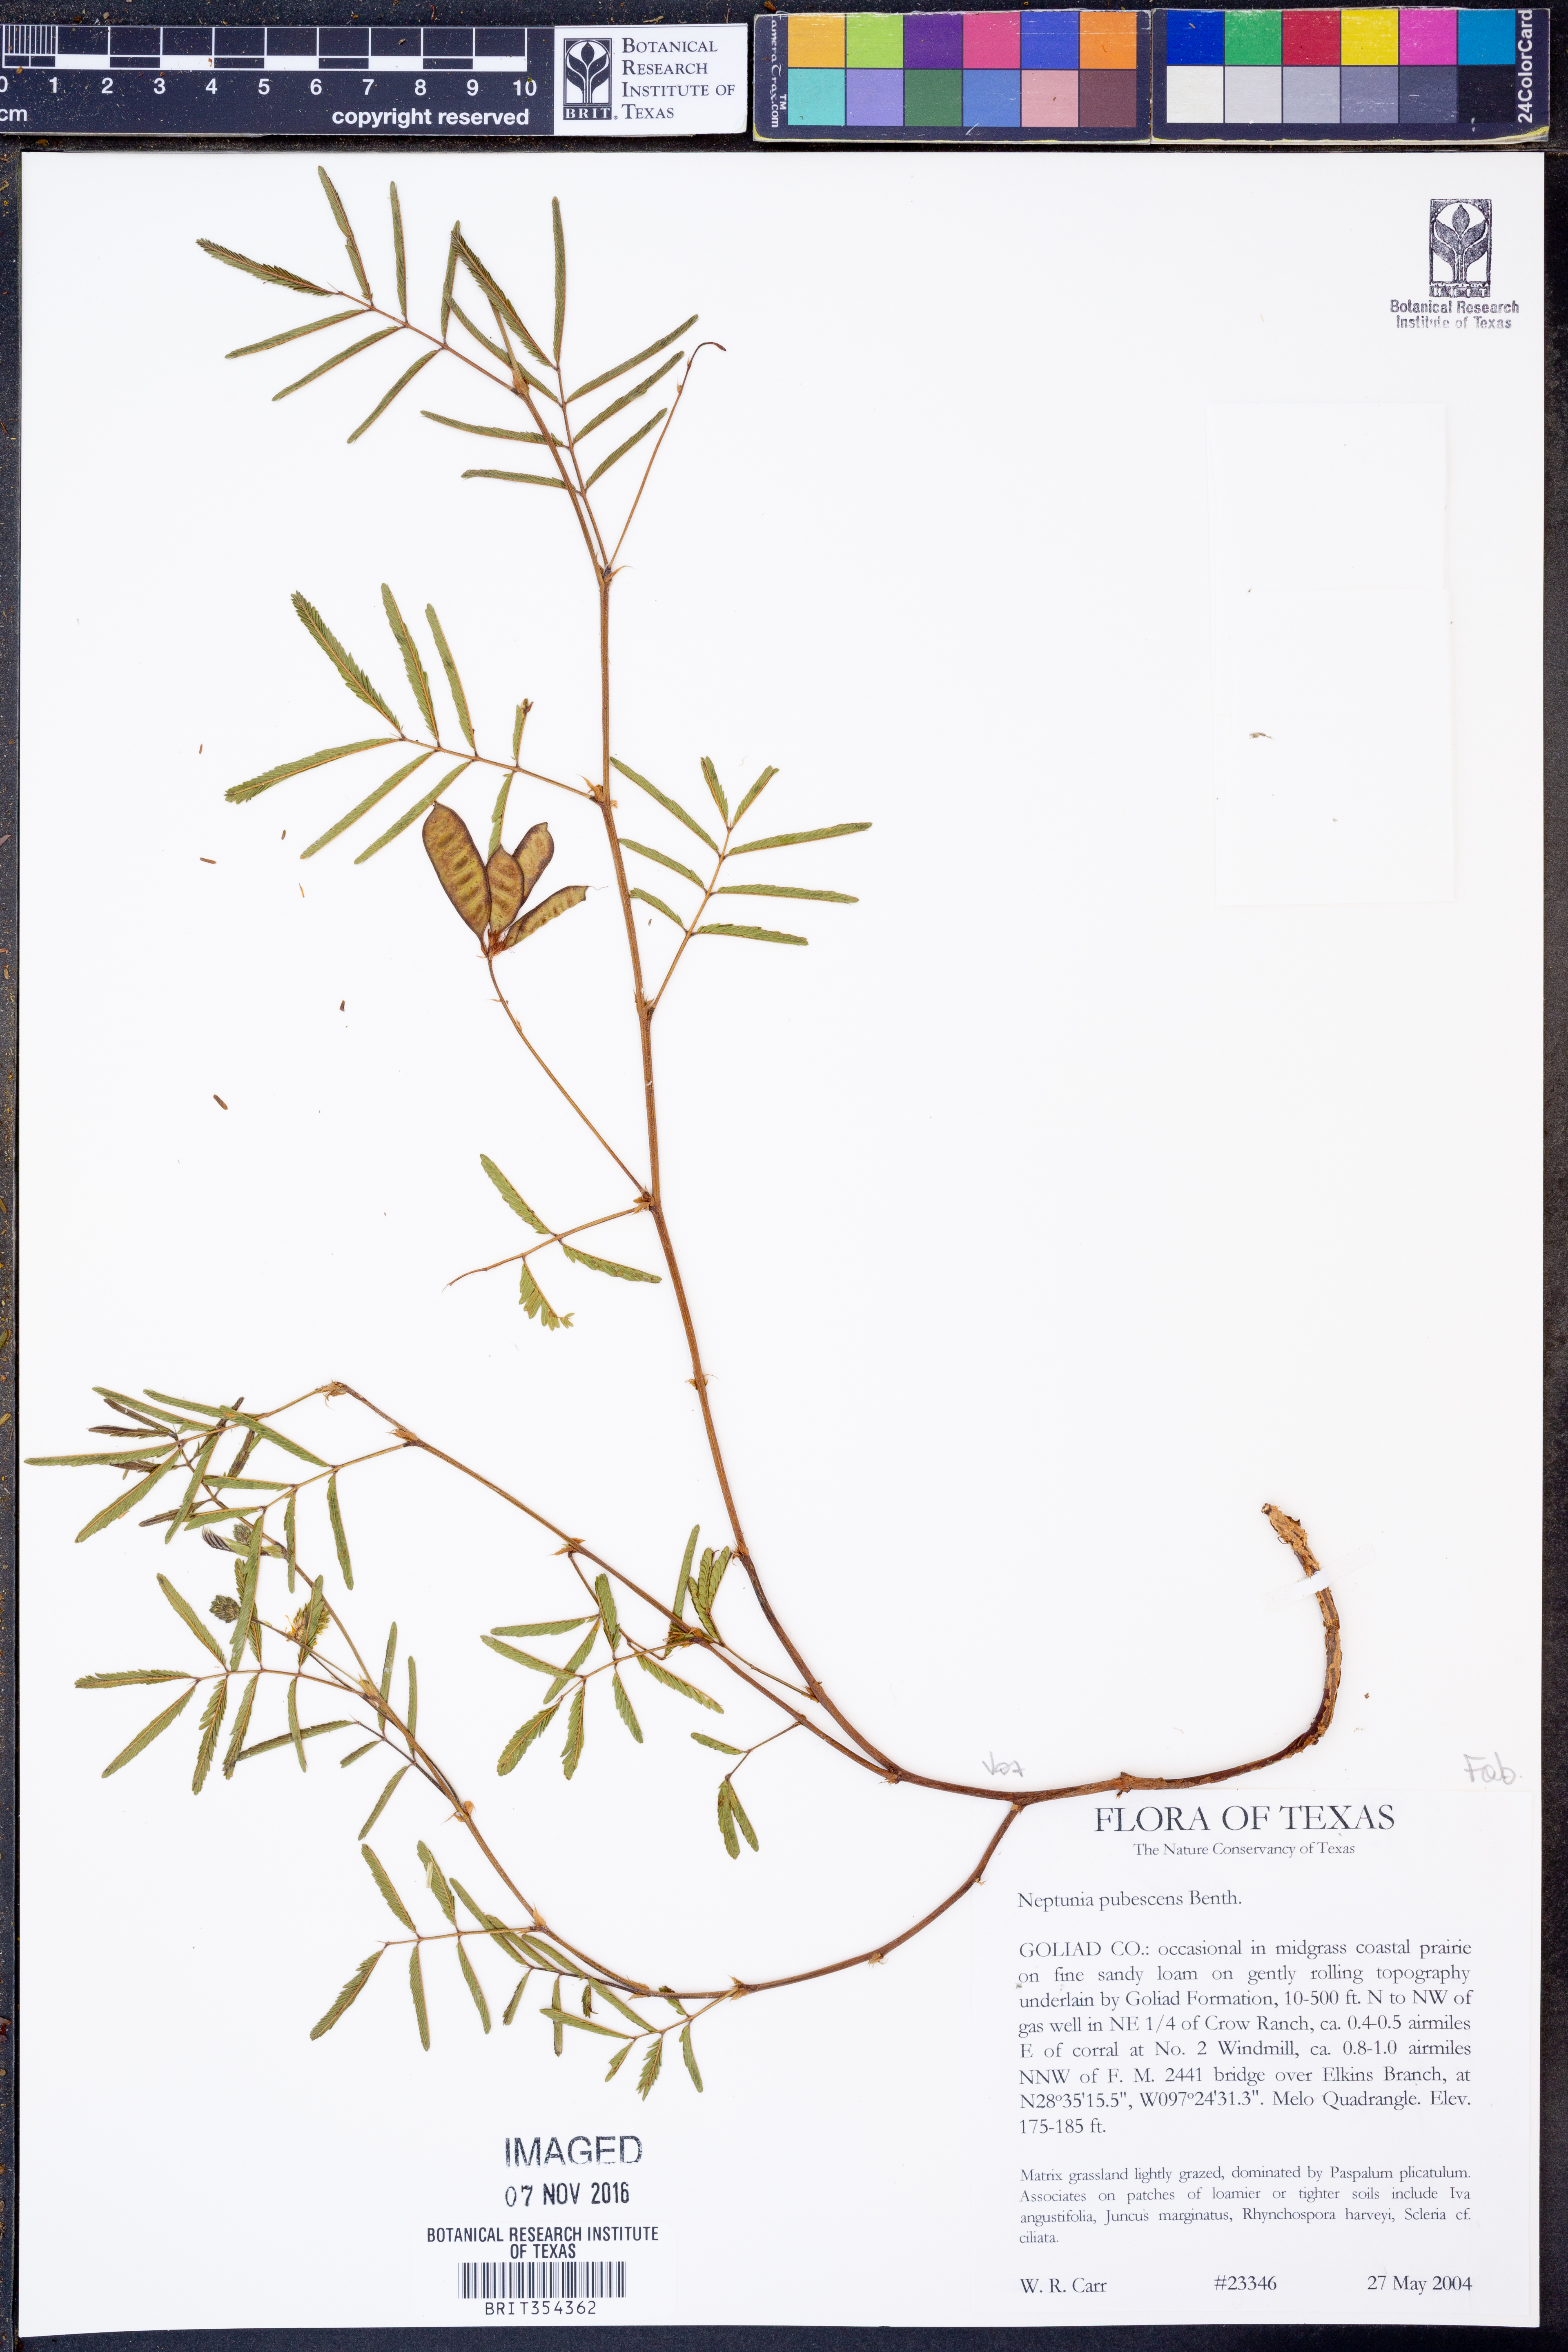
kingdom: Plantae
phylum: Tracheophyta
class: Magnoliopsida
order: Fabales
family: Fabaceae
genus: Neptunia
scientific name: Neptunia pubescens
